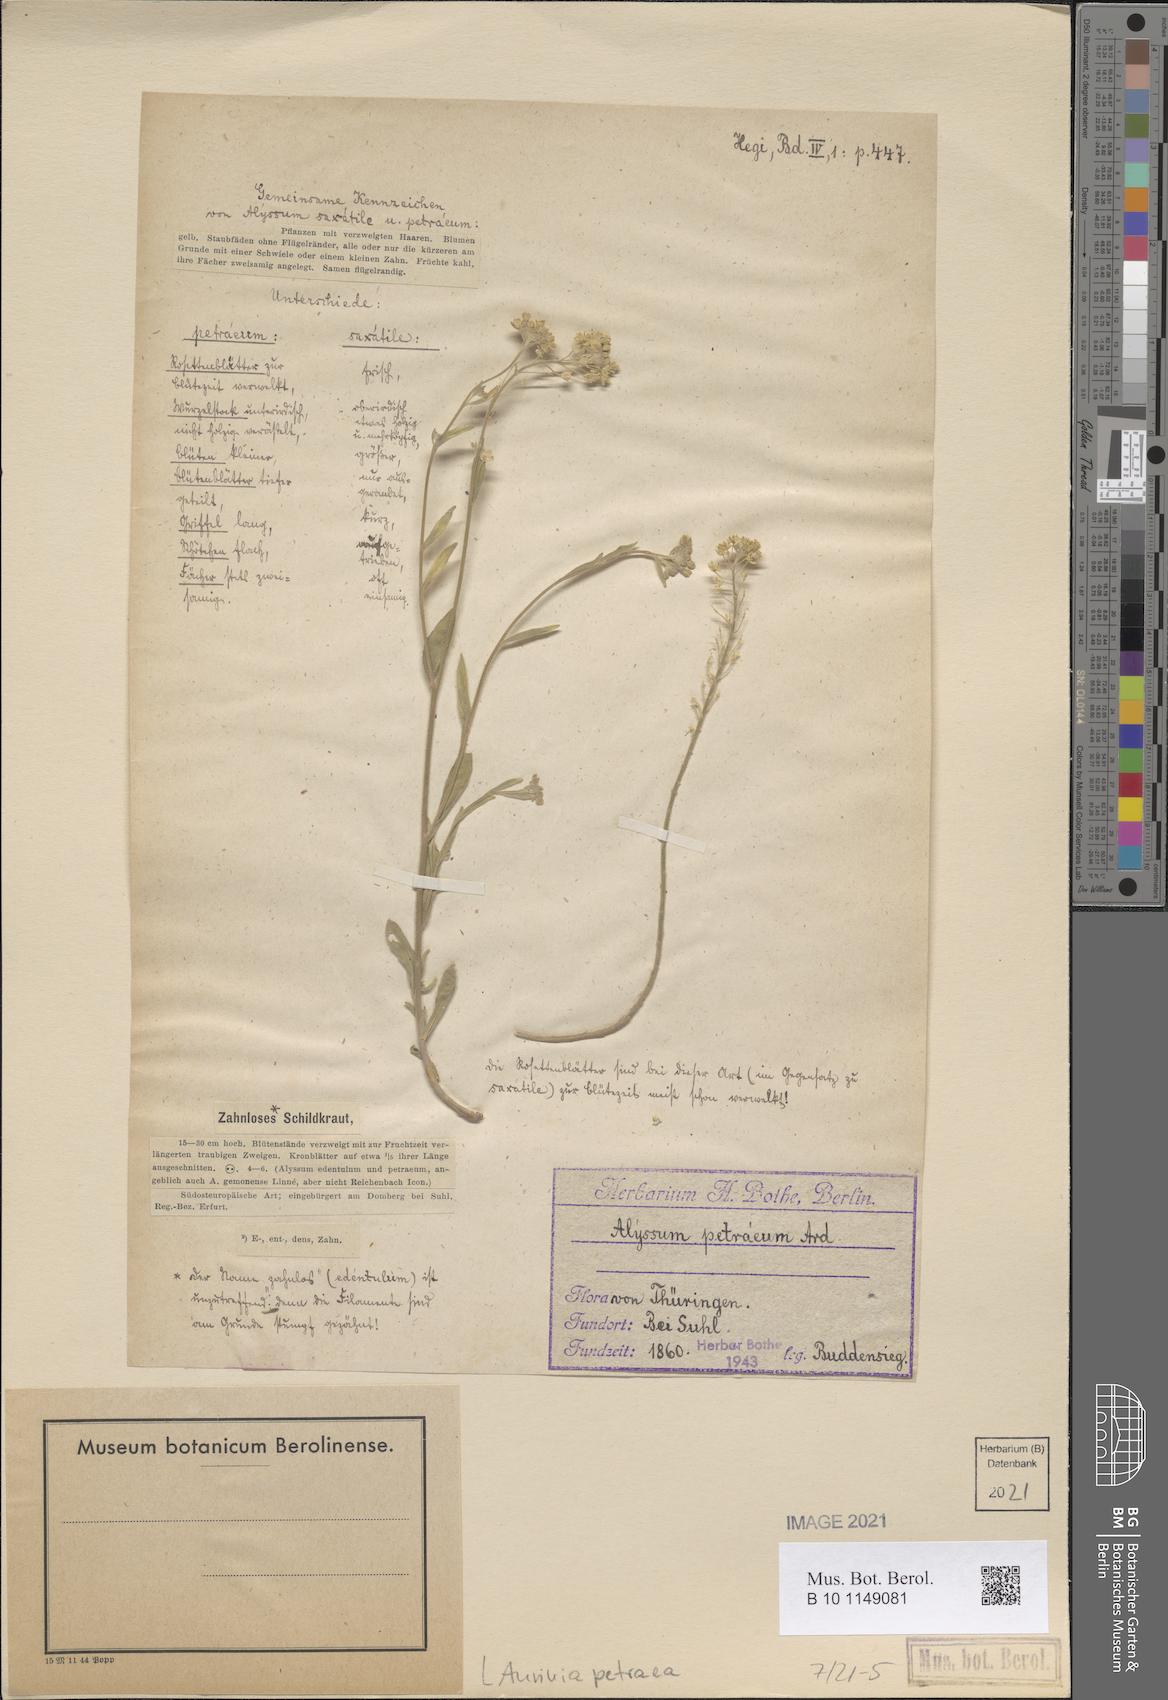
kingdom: Plantae
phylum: Tracheophyta
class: Magnoliopsida
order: Brassicales
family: Brassicaceae
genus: Aurinia
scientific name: Aurinia petraea
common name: Goldentuft
